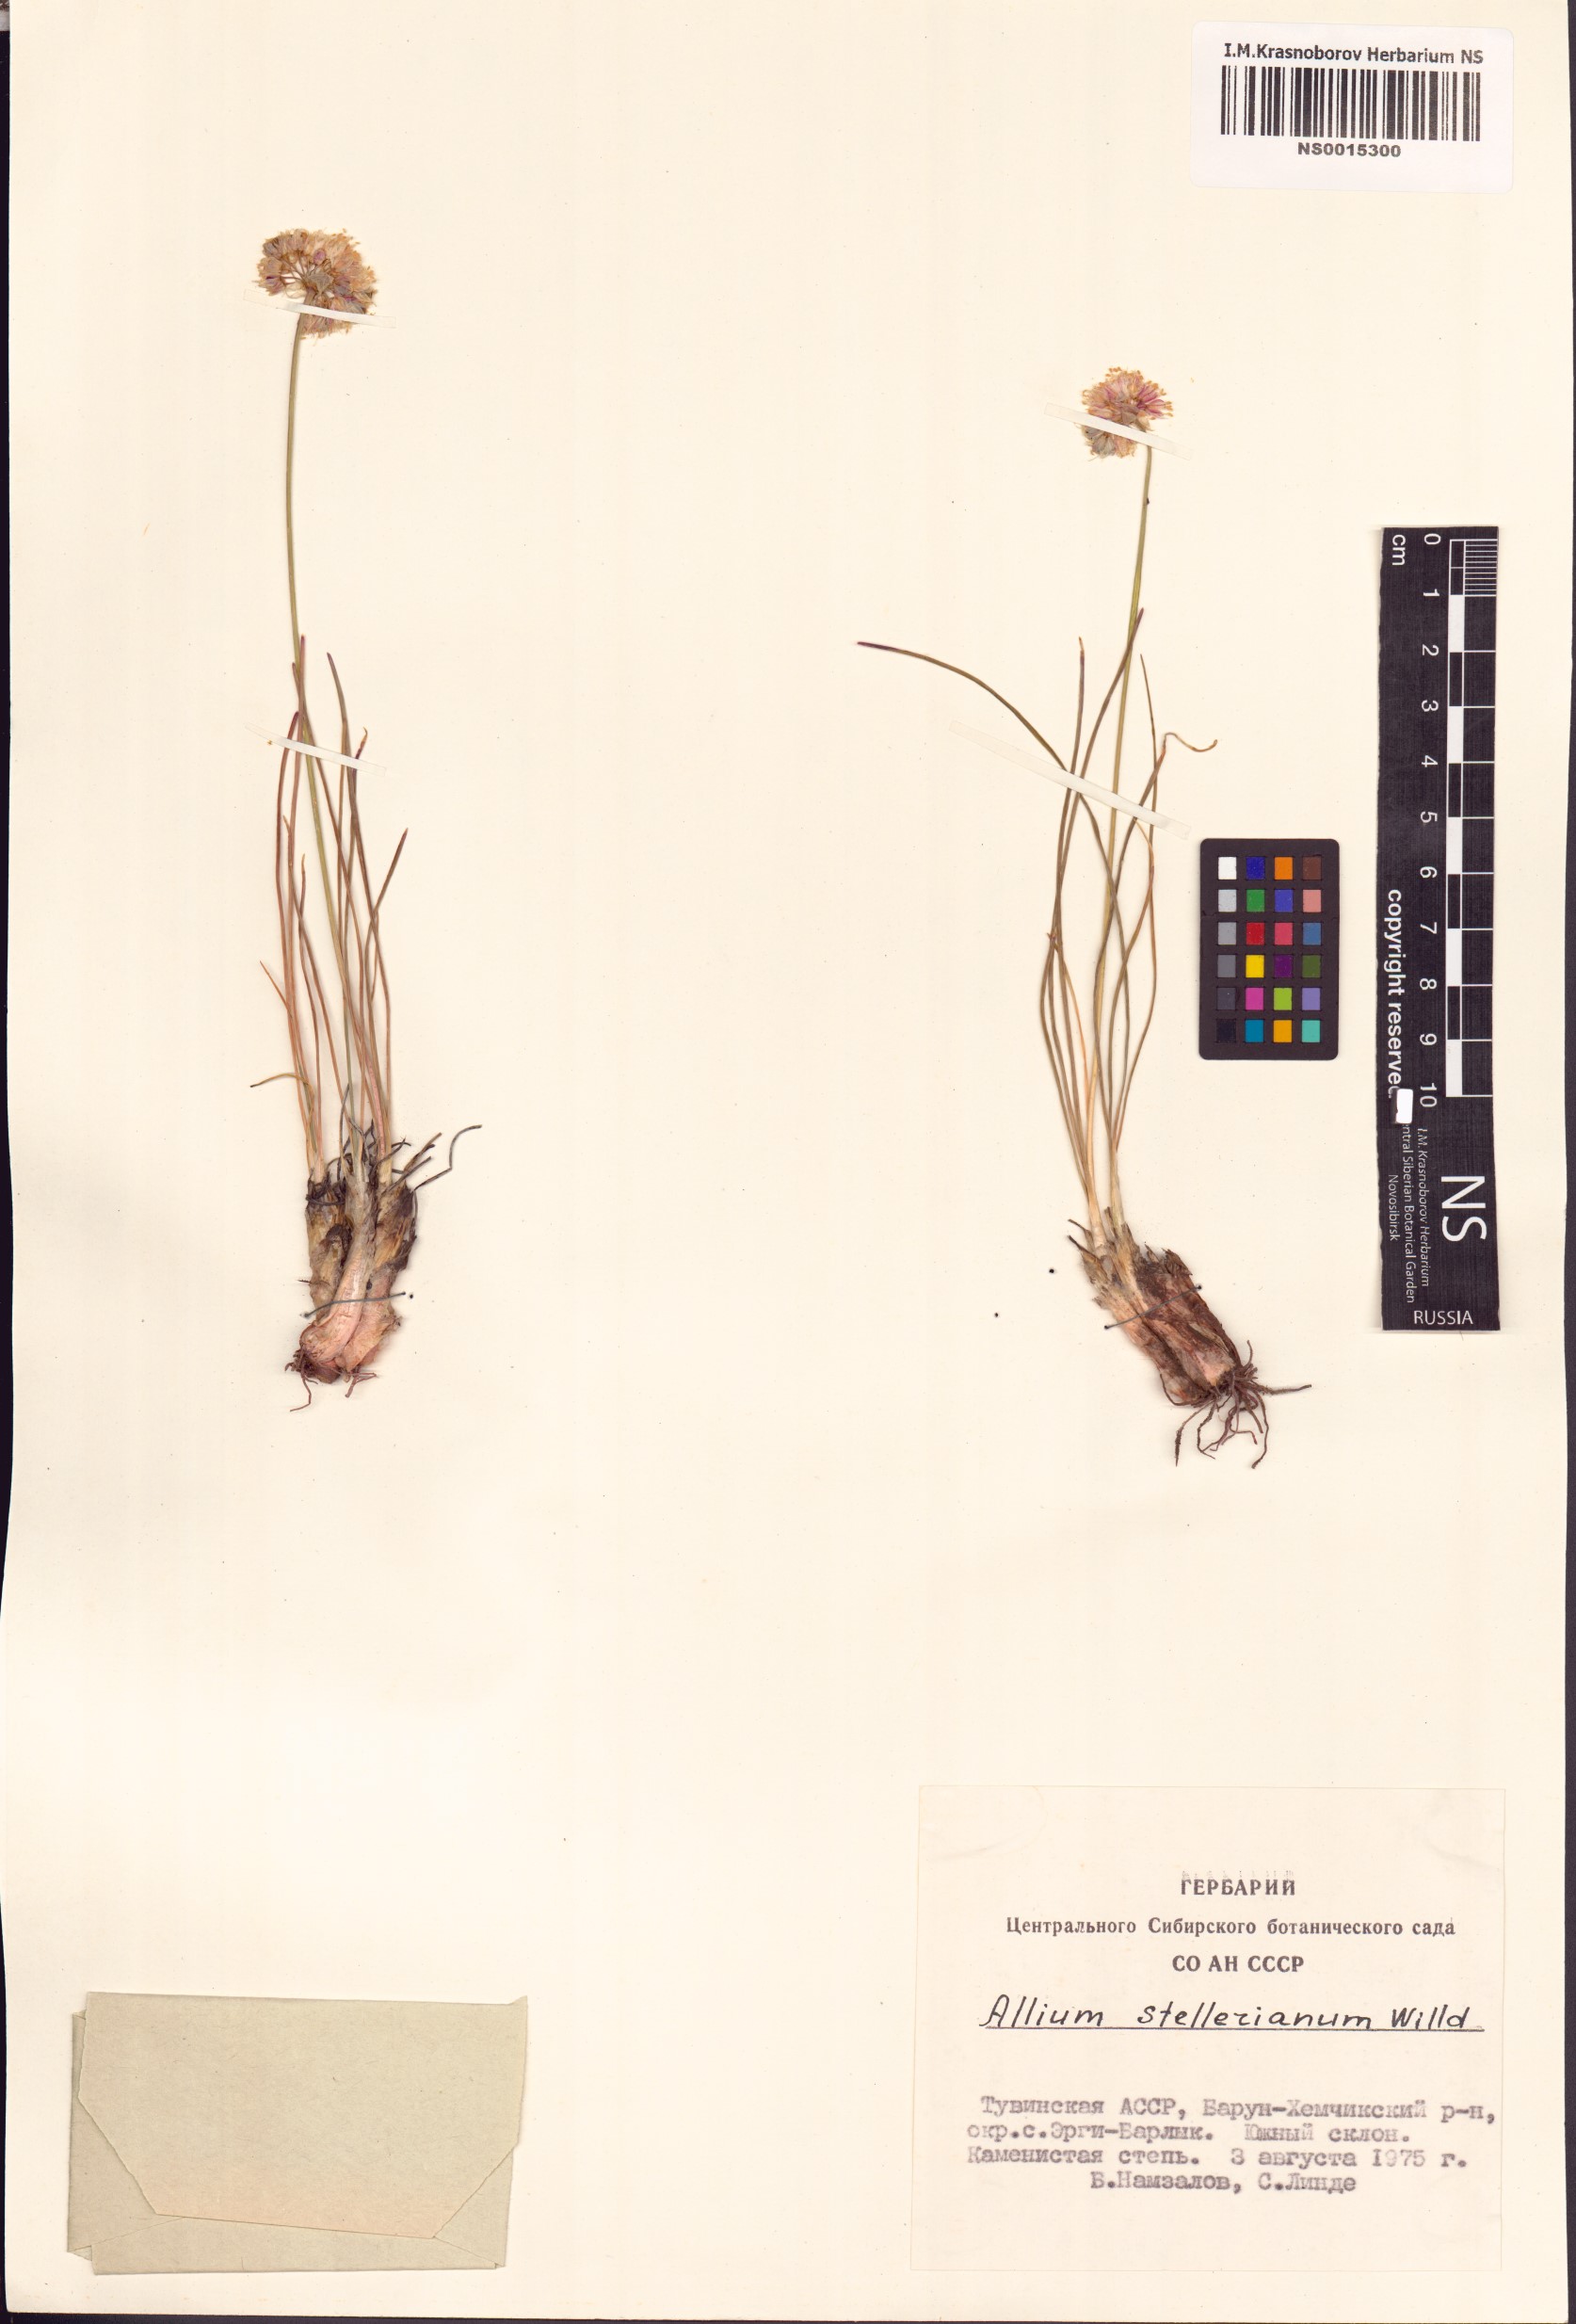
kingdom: Plantae
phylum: Tracheophyta
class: Liliopsida
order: Asparagales
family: Amaryllidaceae
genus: Allium
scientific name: Allium stellerianum
